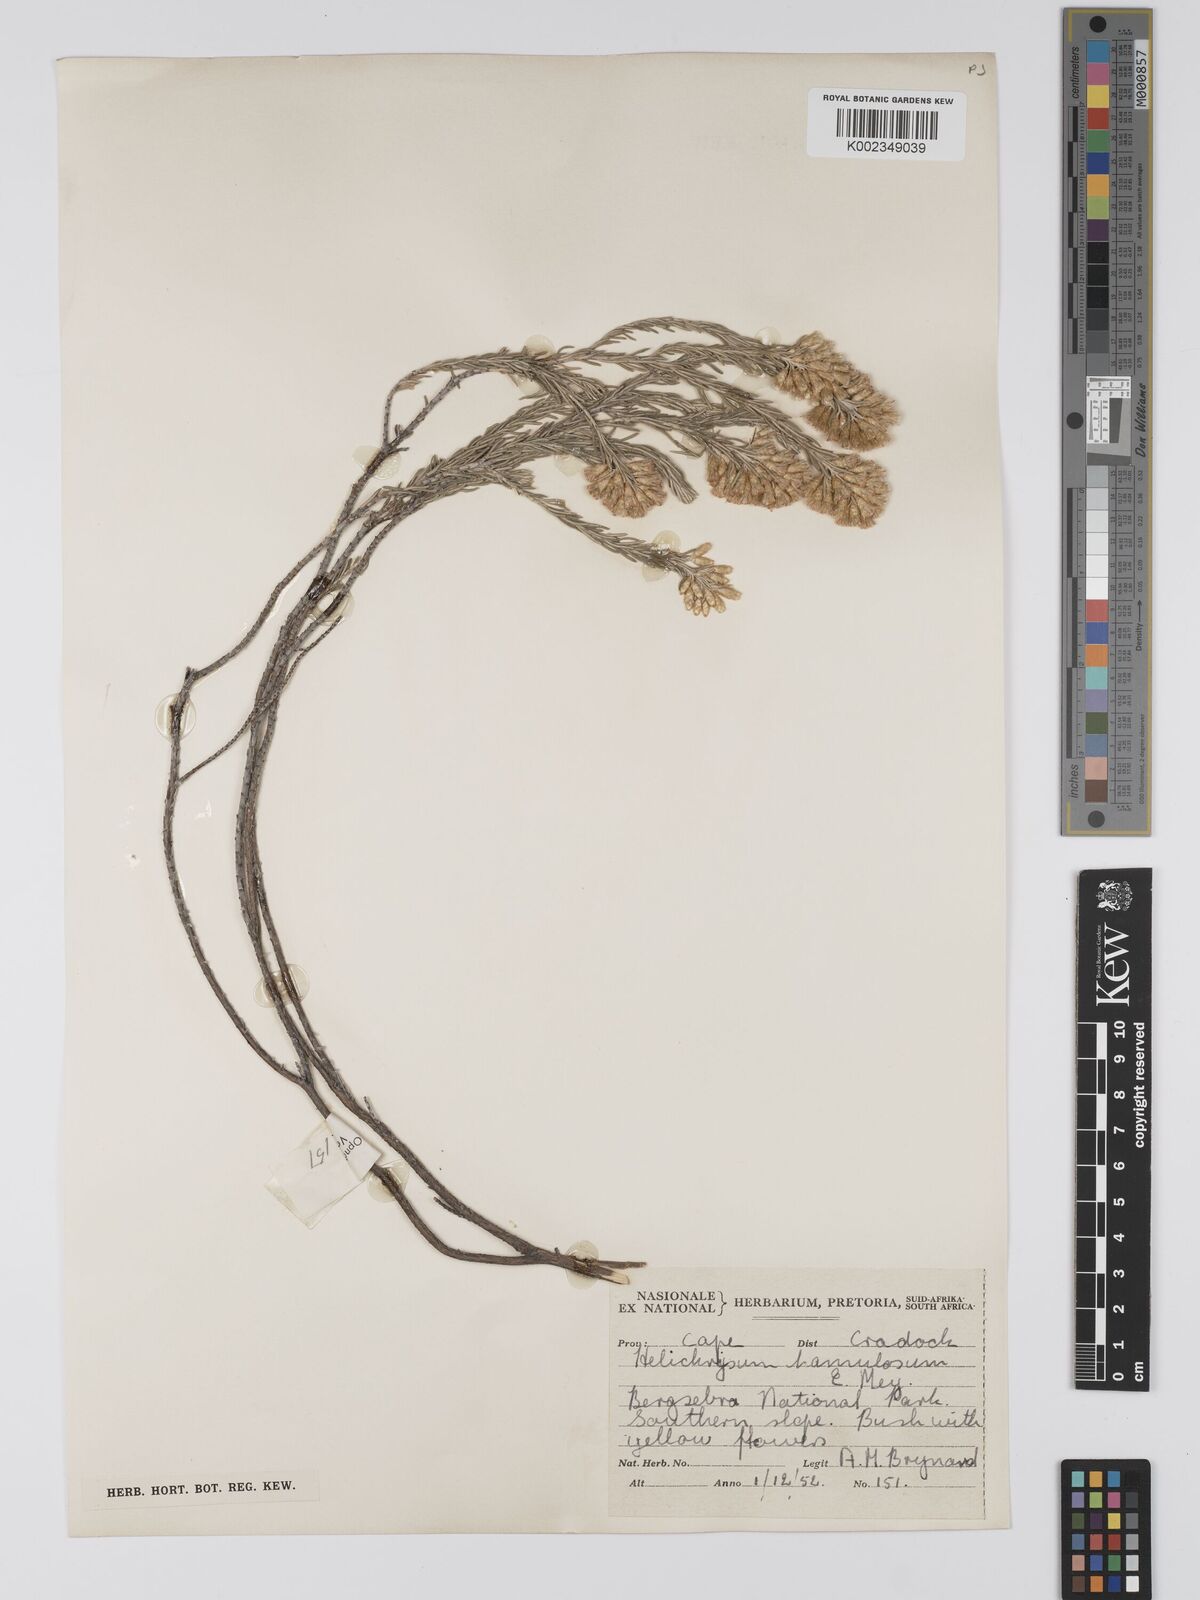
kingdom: Plantae
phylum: Tracheophyta
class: Magnoliopsida
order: Asterales
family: Asteraceae
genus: Helichrysum
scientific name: Helichrysum hamulosum
